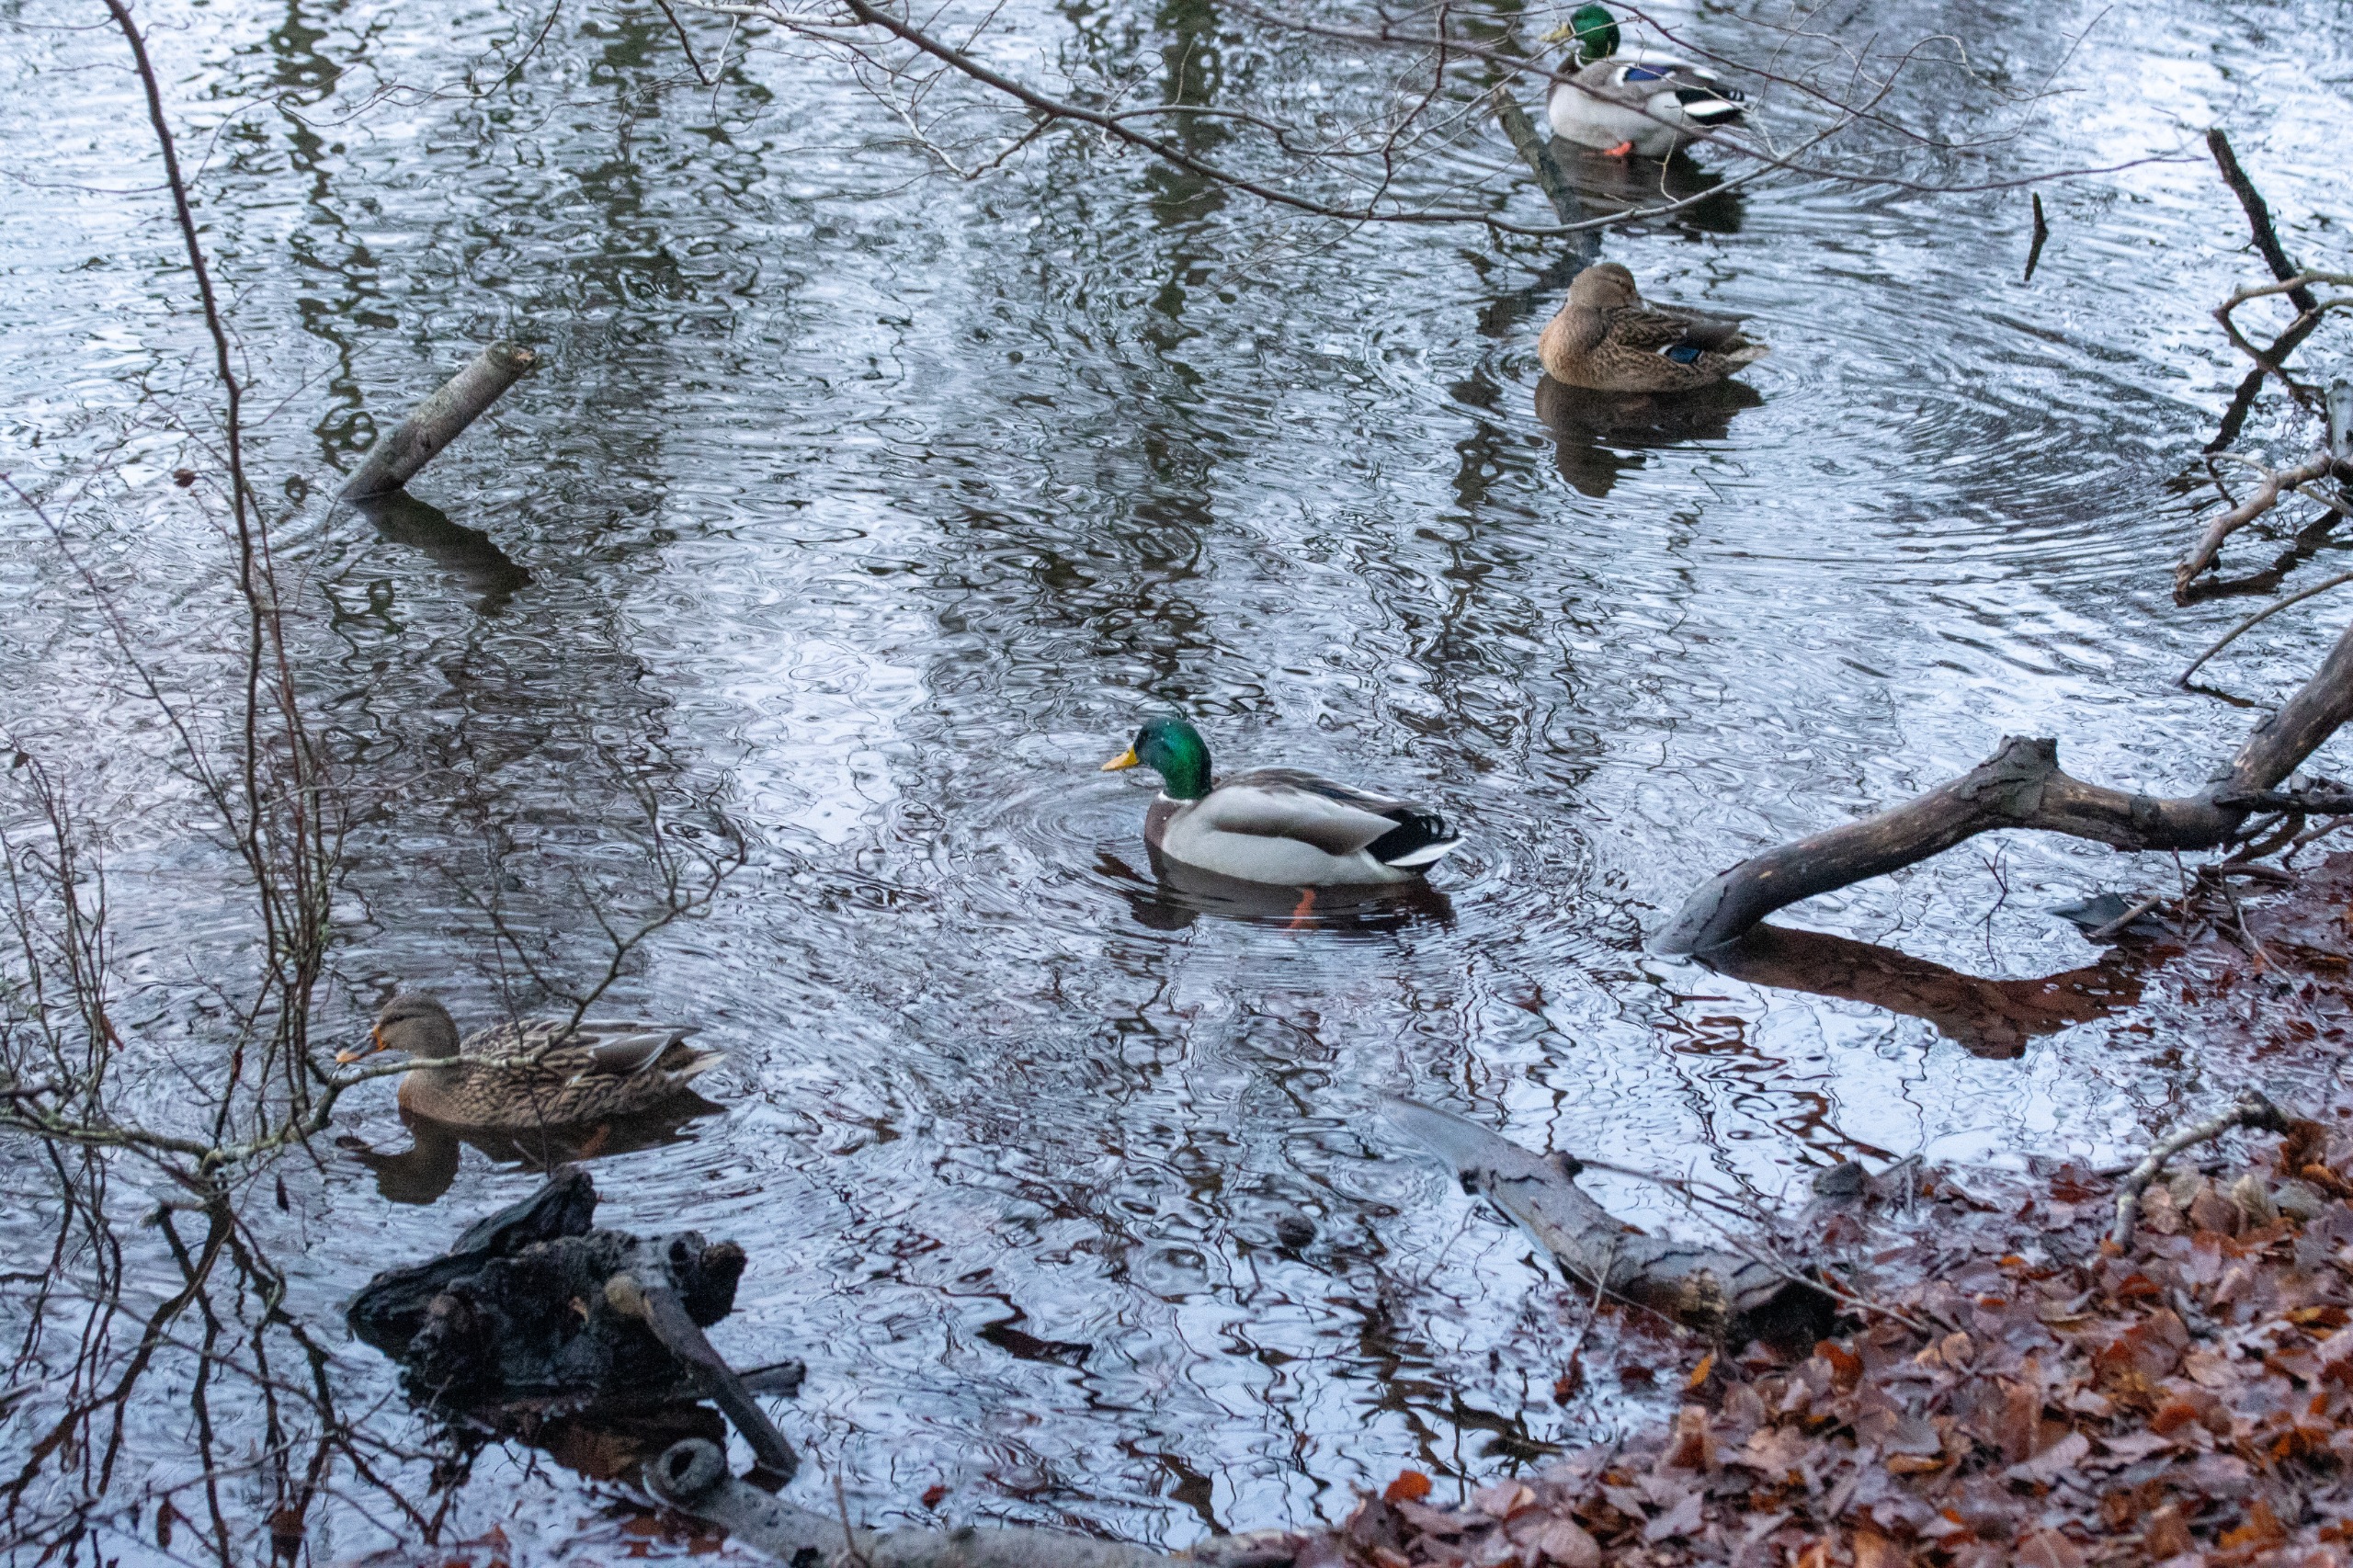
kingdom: Animalia
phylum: Chordata
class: Aves
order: Anseriformes
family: Anatidae
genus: Anas
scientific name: Anas platyrhynchos
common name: Gråand
